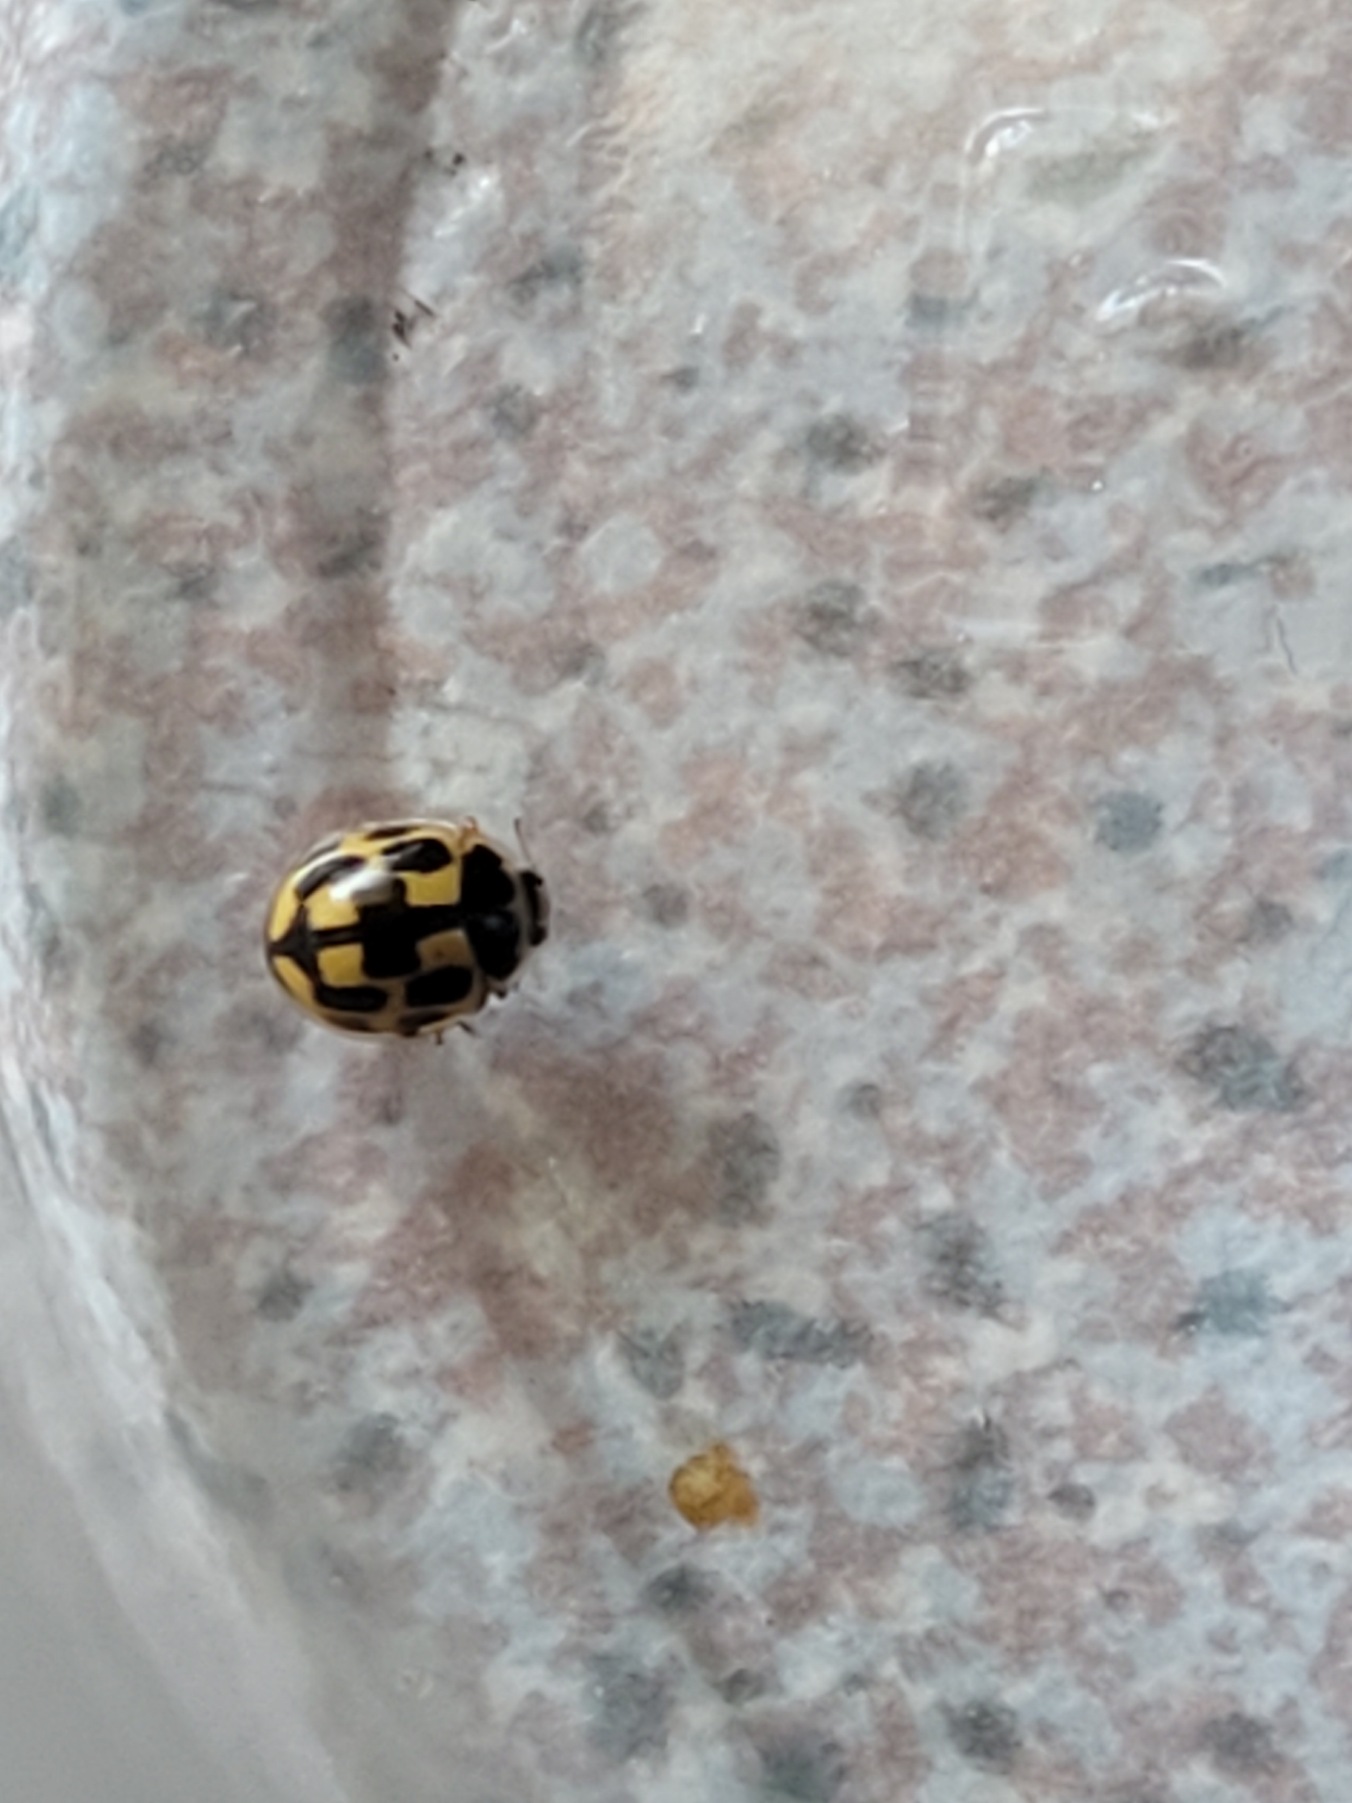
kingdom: Animalia
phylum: Arthropoda
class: Insecta
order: Coleoptera
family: Coccinellidae
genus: Propylaea
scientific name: Propylaea quatuordecimpunctata
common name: Skakbræt
